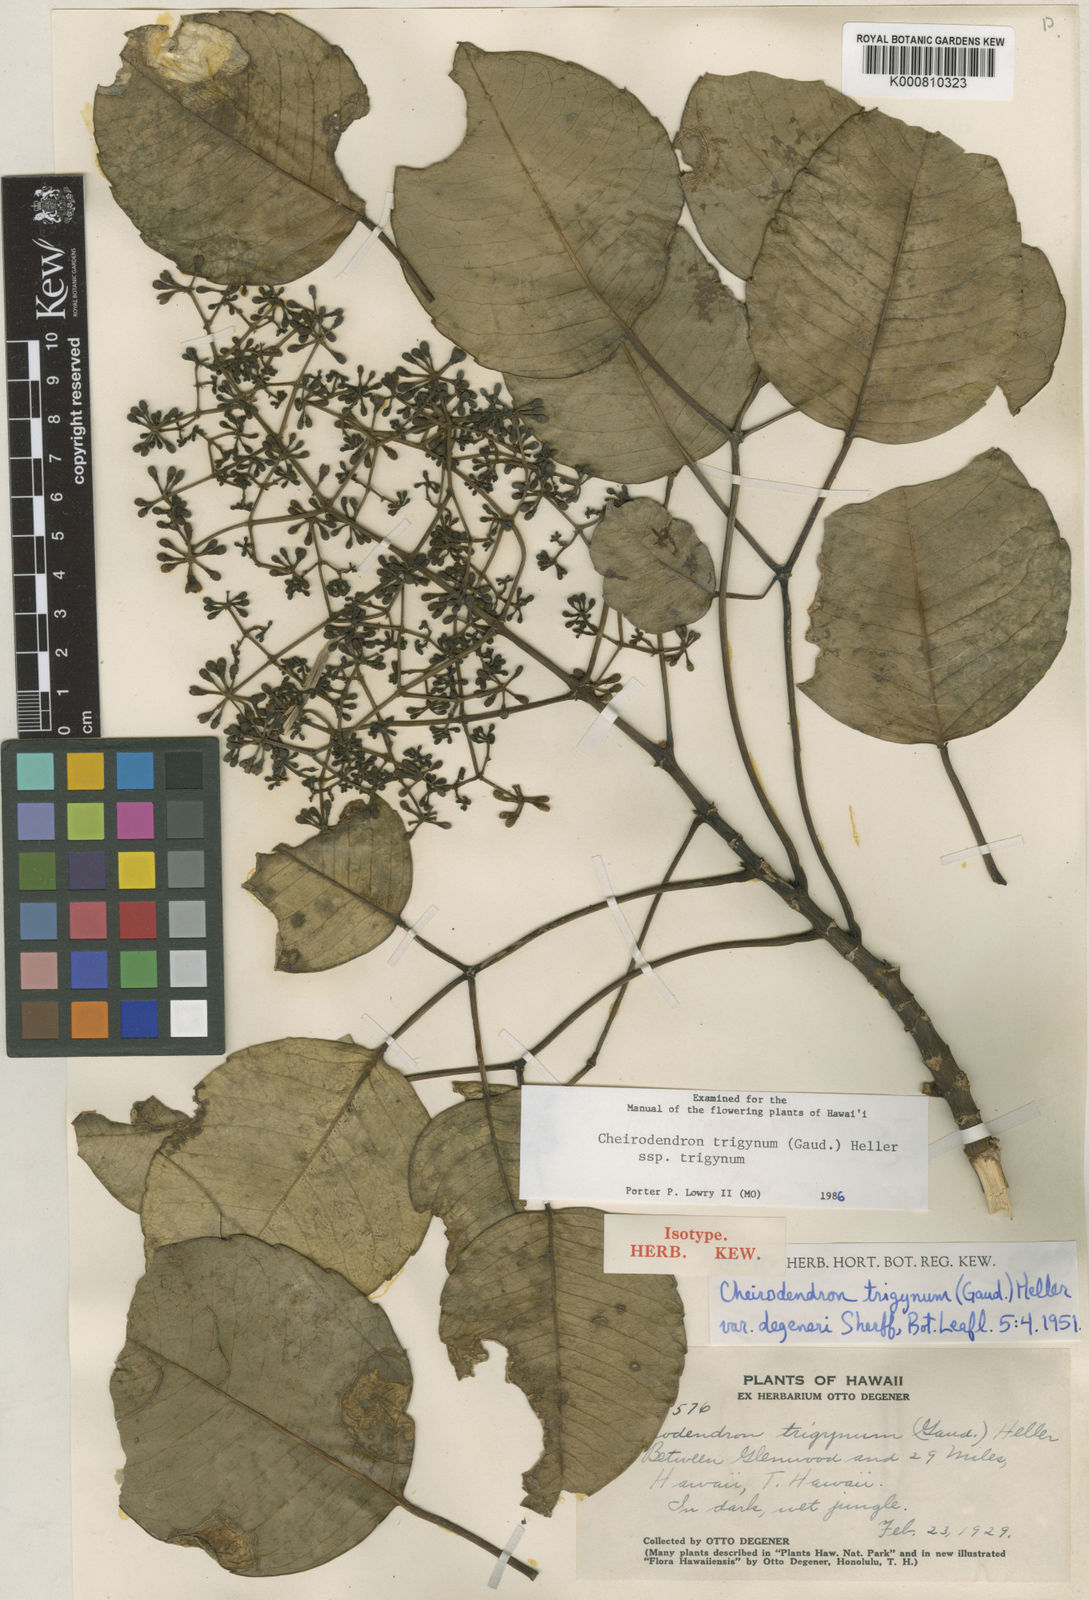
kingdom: Plantae
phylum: Tracheophyta
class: Magnoliopsida
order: Apiales
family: Araliaceae
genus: Cheirodendron
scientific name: Cheirodendron trigynum
